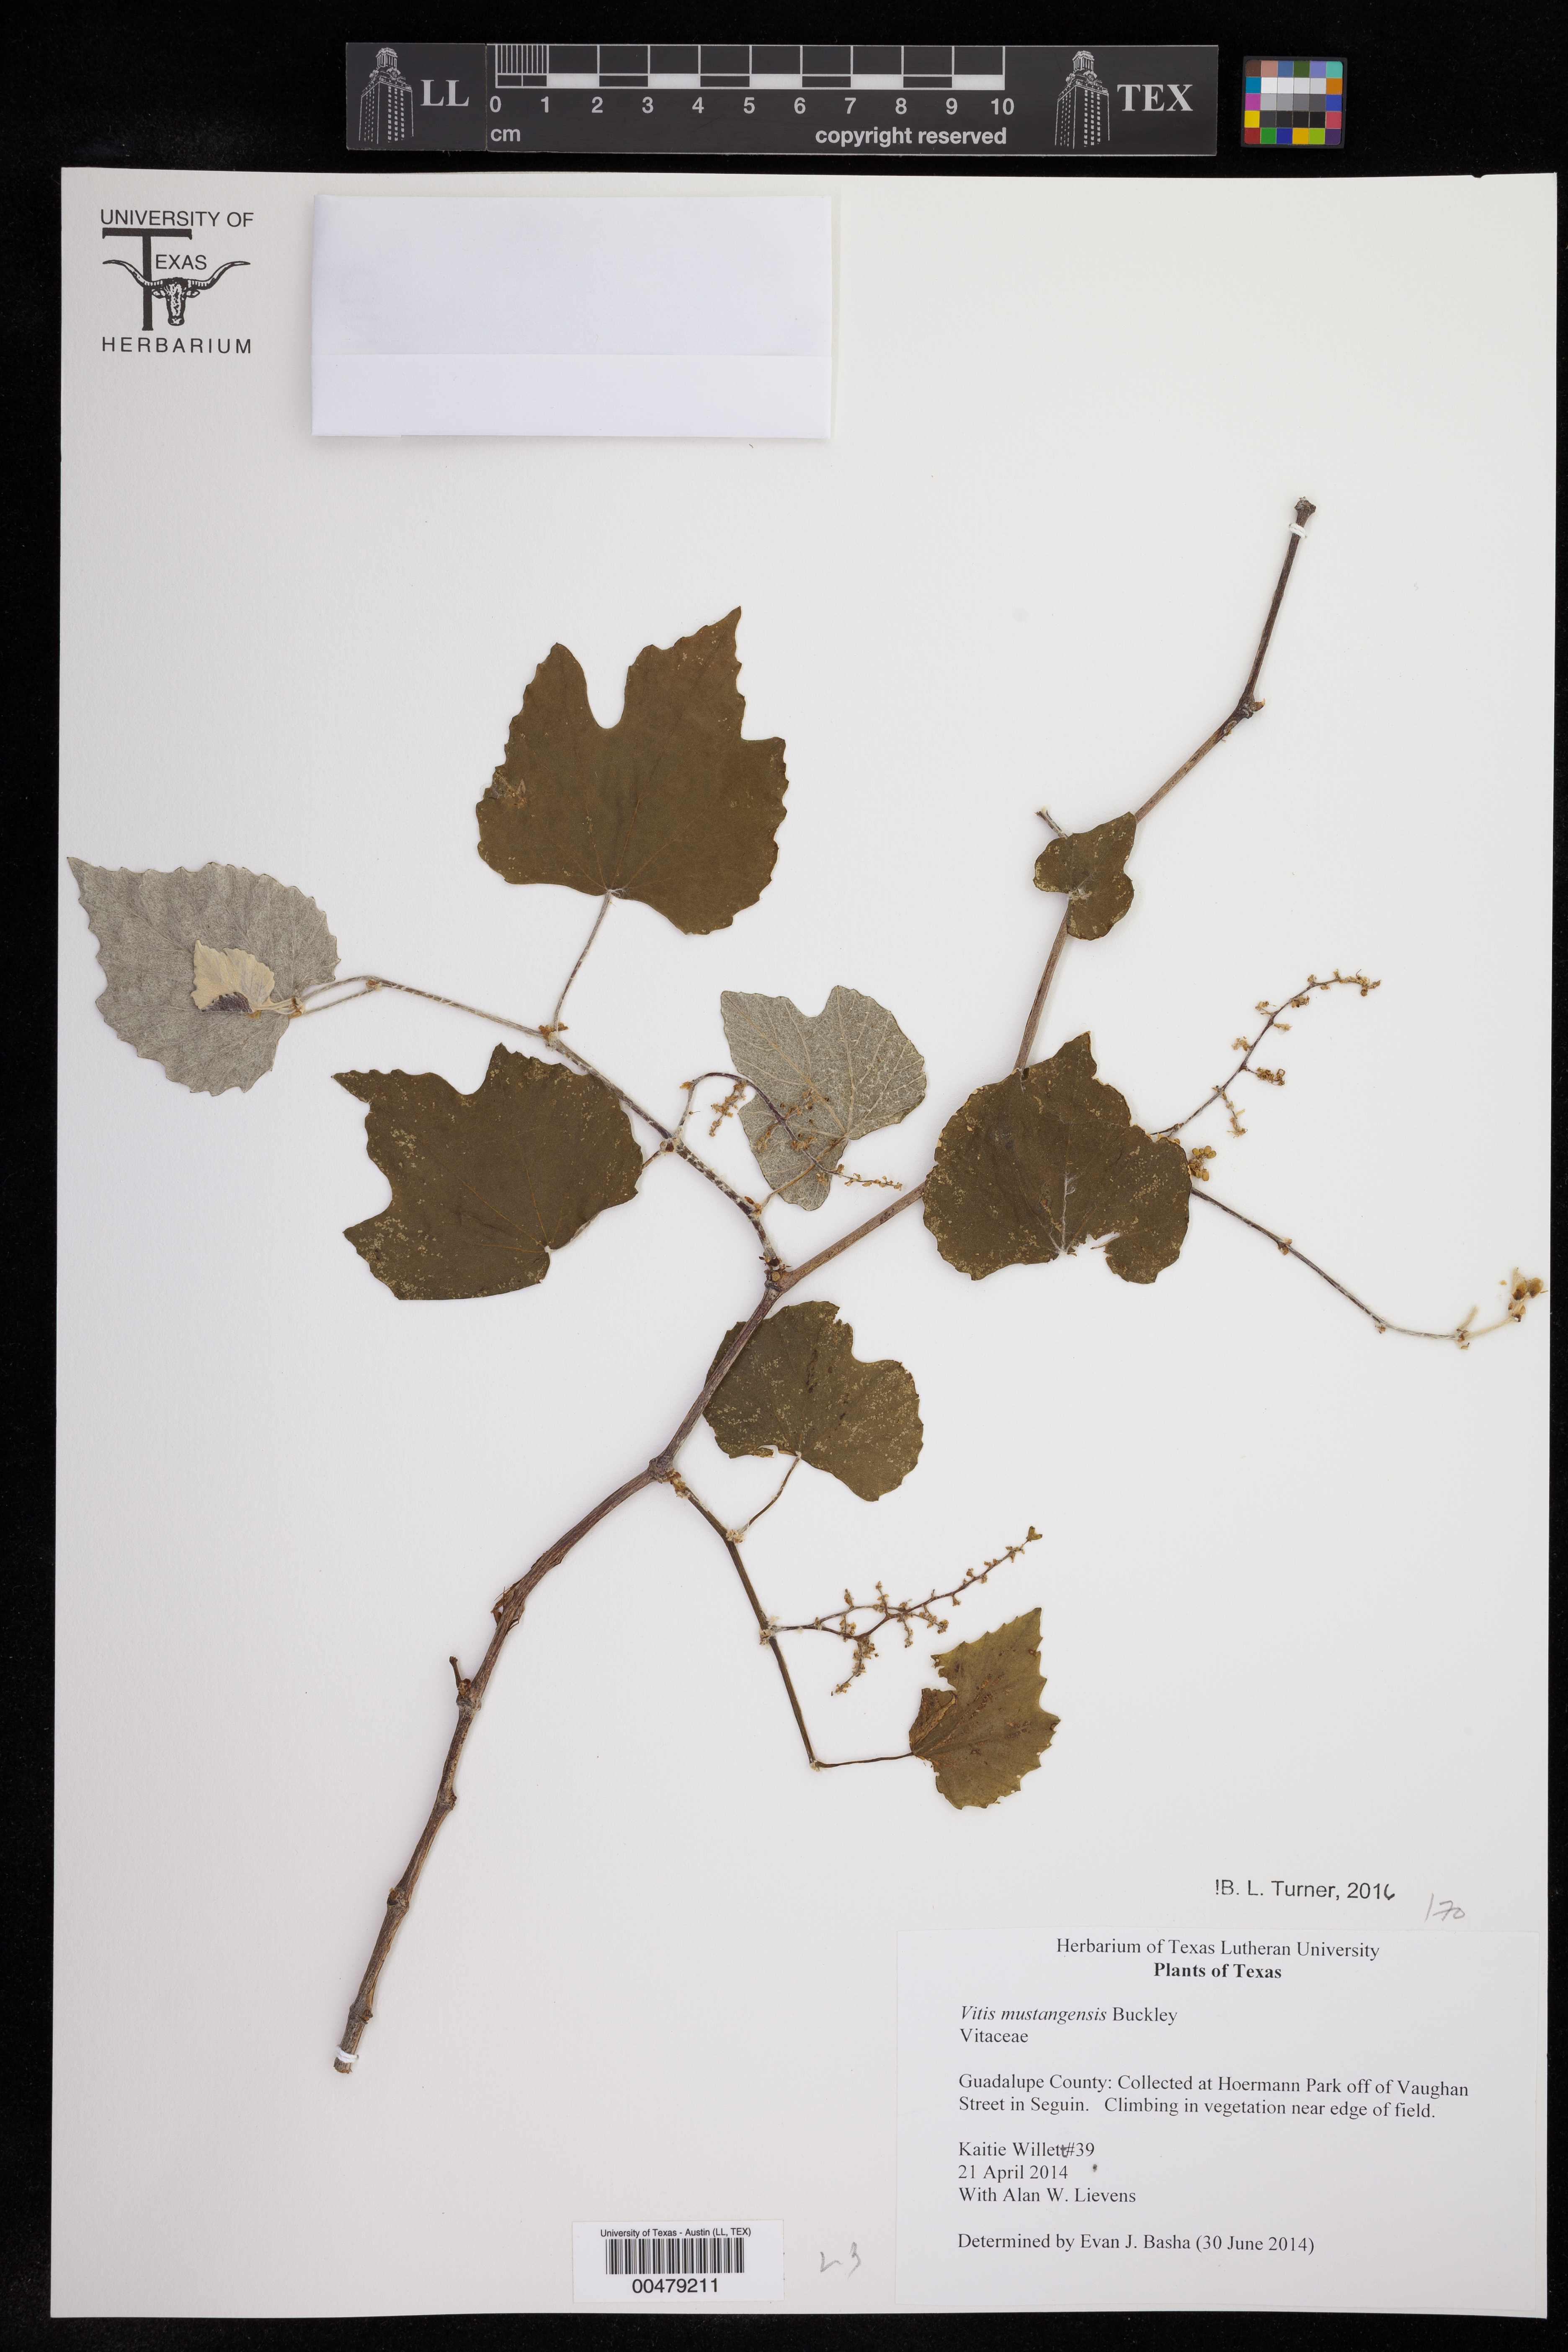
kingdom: Plantae
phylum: Tracheophyta
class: Magnoliopsida
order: Vitales
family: Vitaceae
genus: Vitis
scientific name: Vitis mustangensis
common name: Mustang grape
